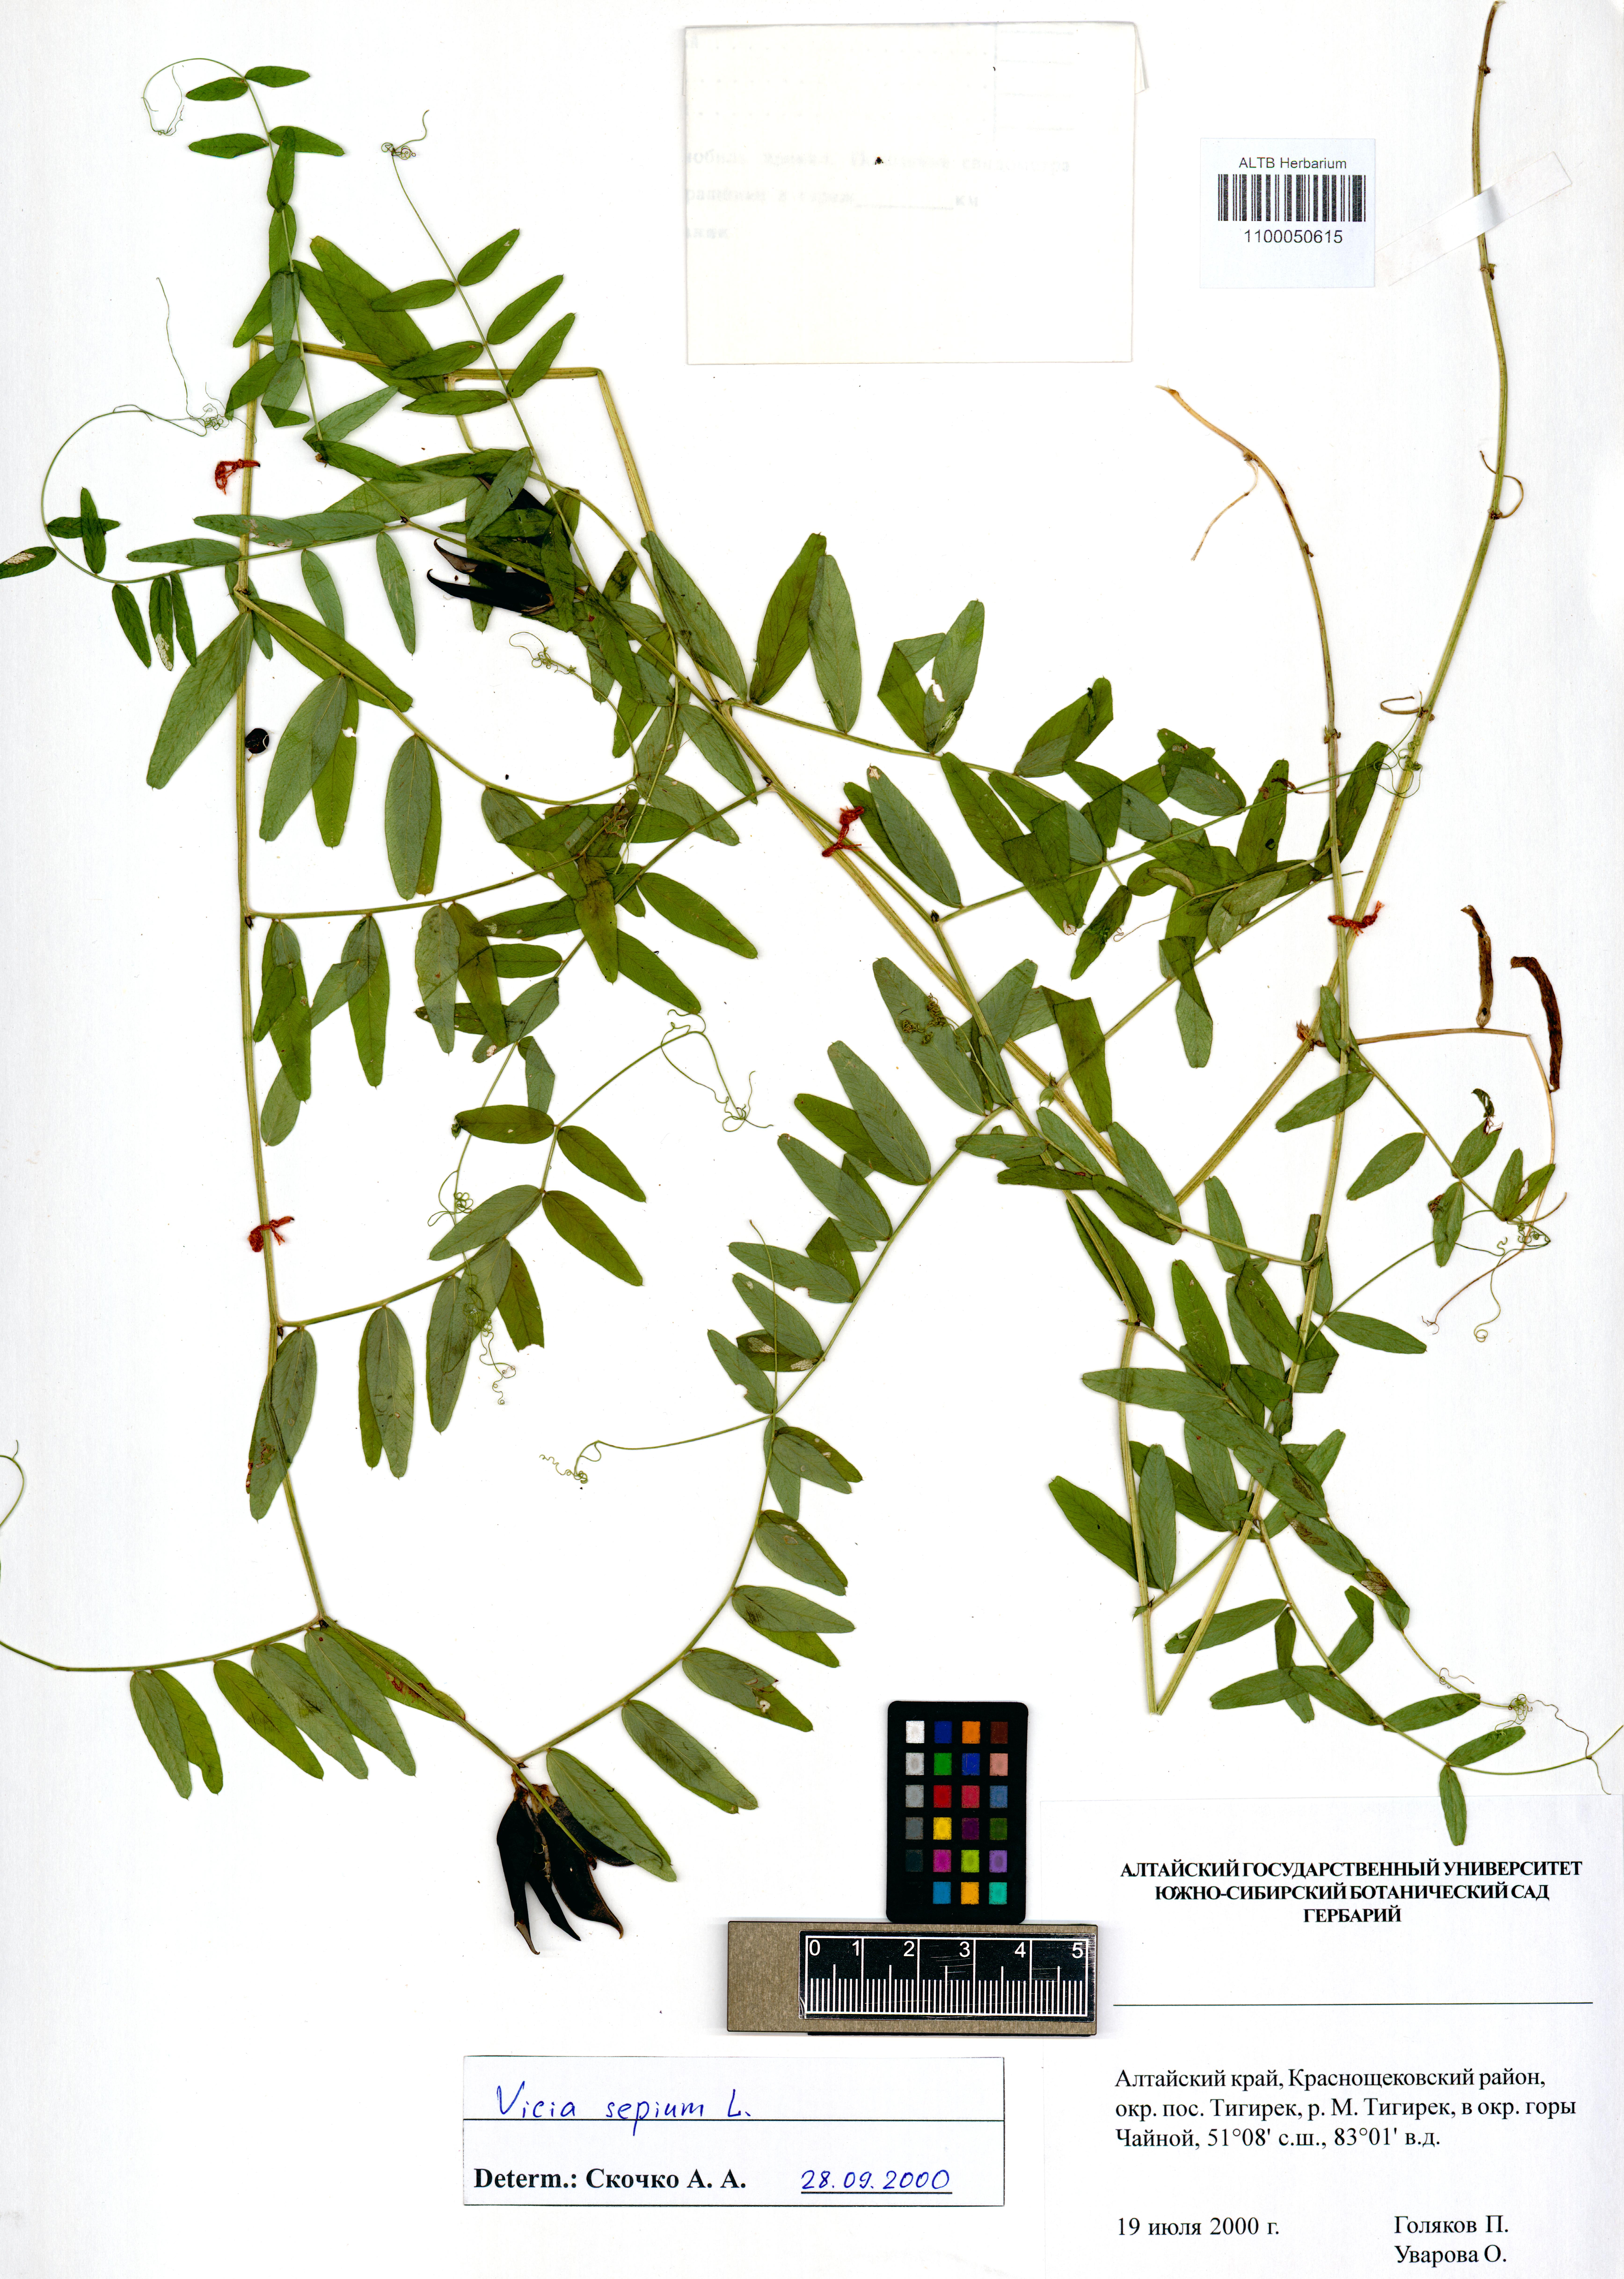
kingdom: Plantae
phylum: Tracheophyta
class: Magnoliopsida
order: Fabales
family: Fabaceae
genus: Vicia
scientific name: Vicia sepium
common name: Bush vetch
